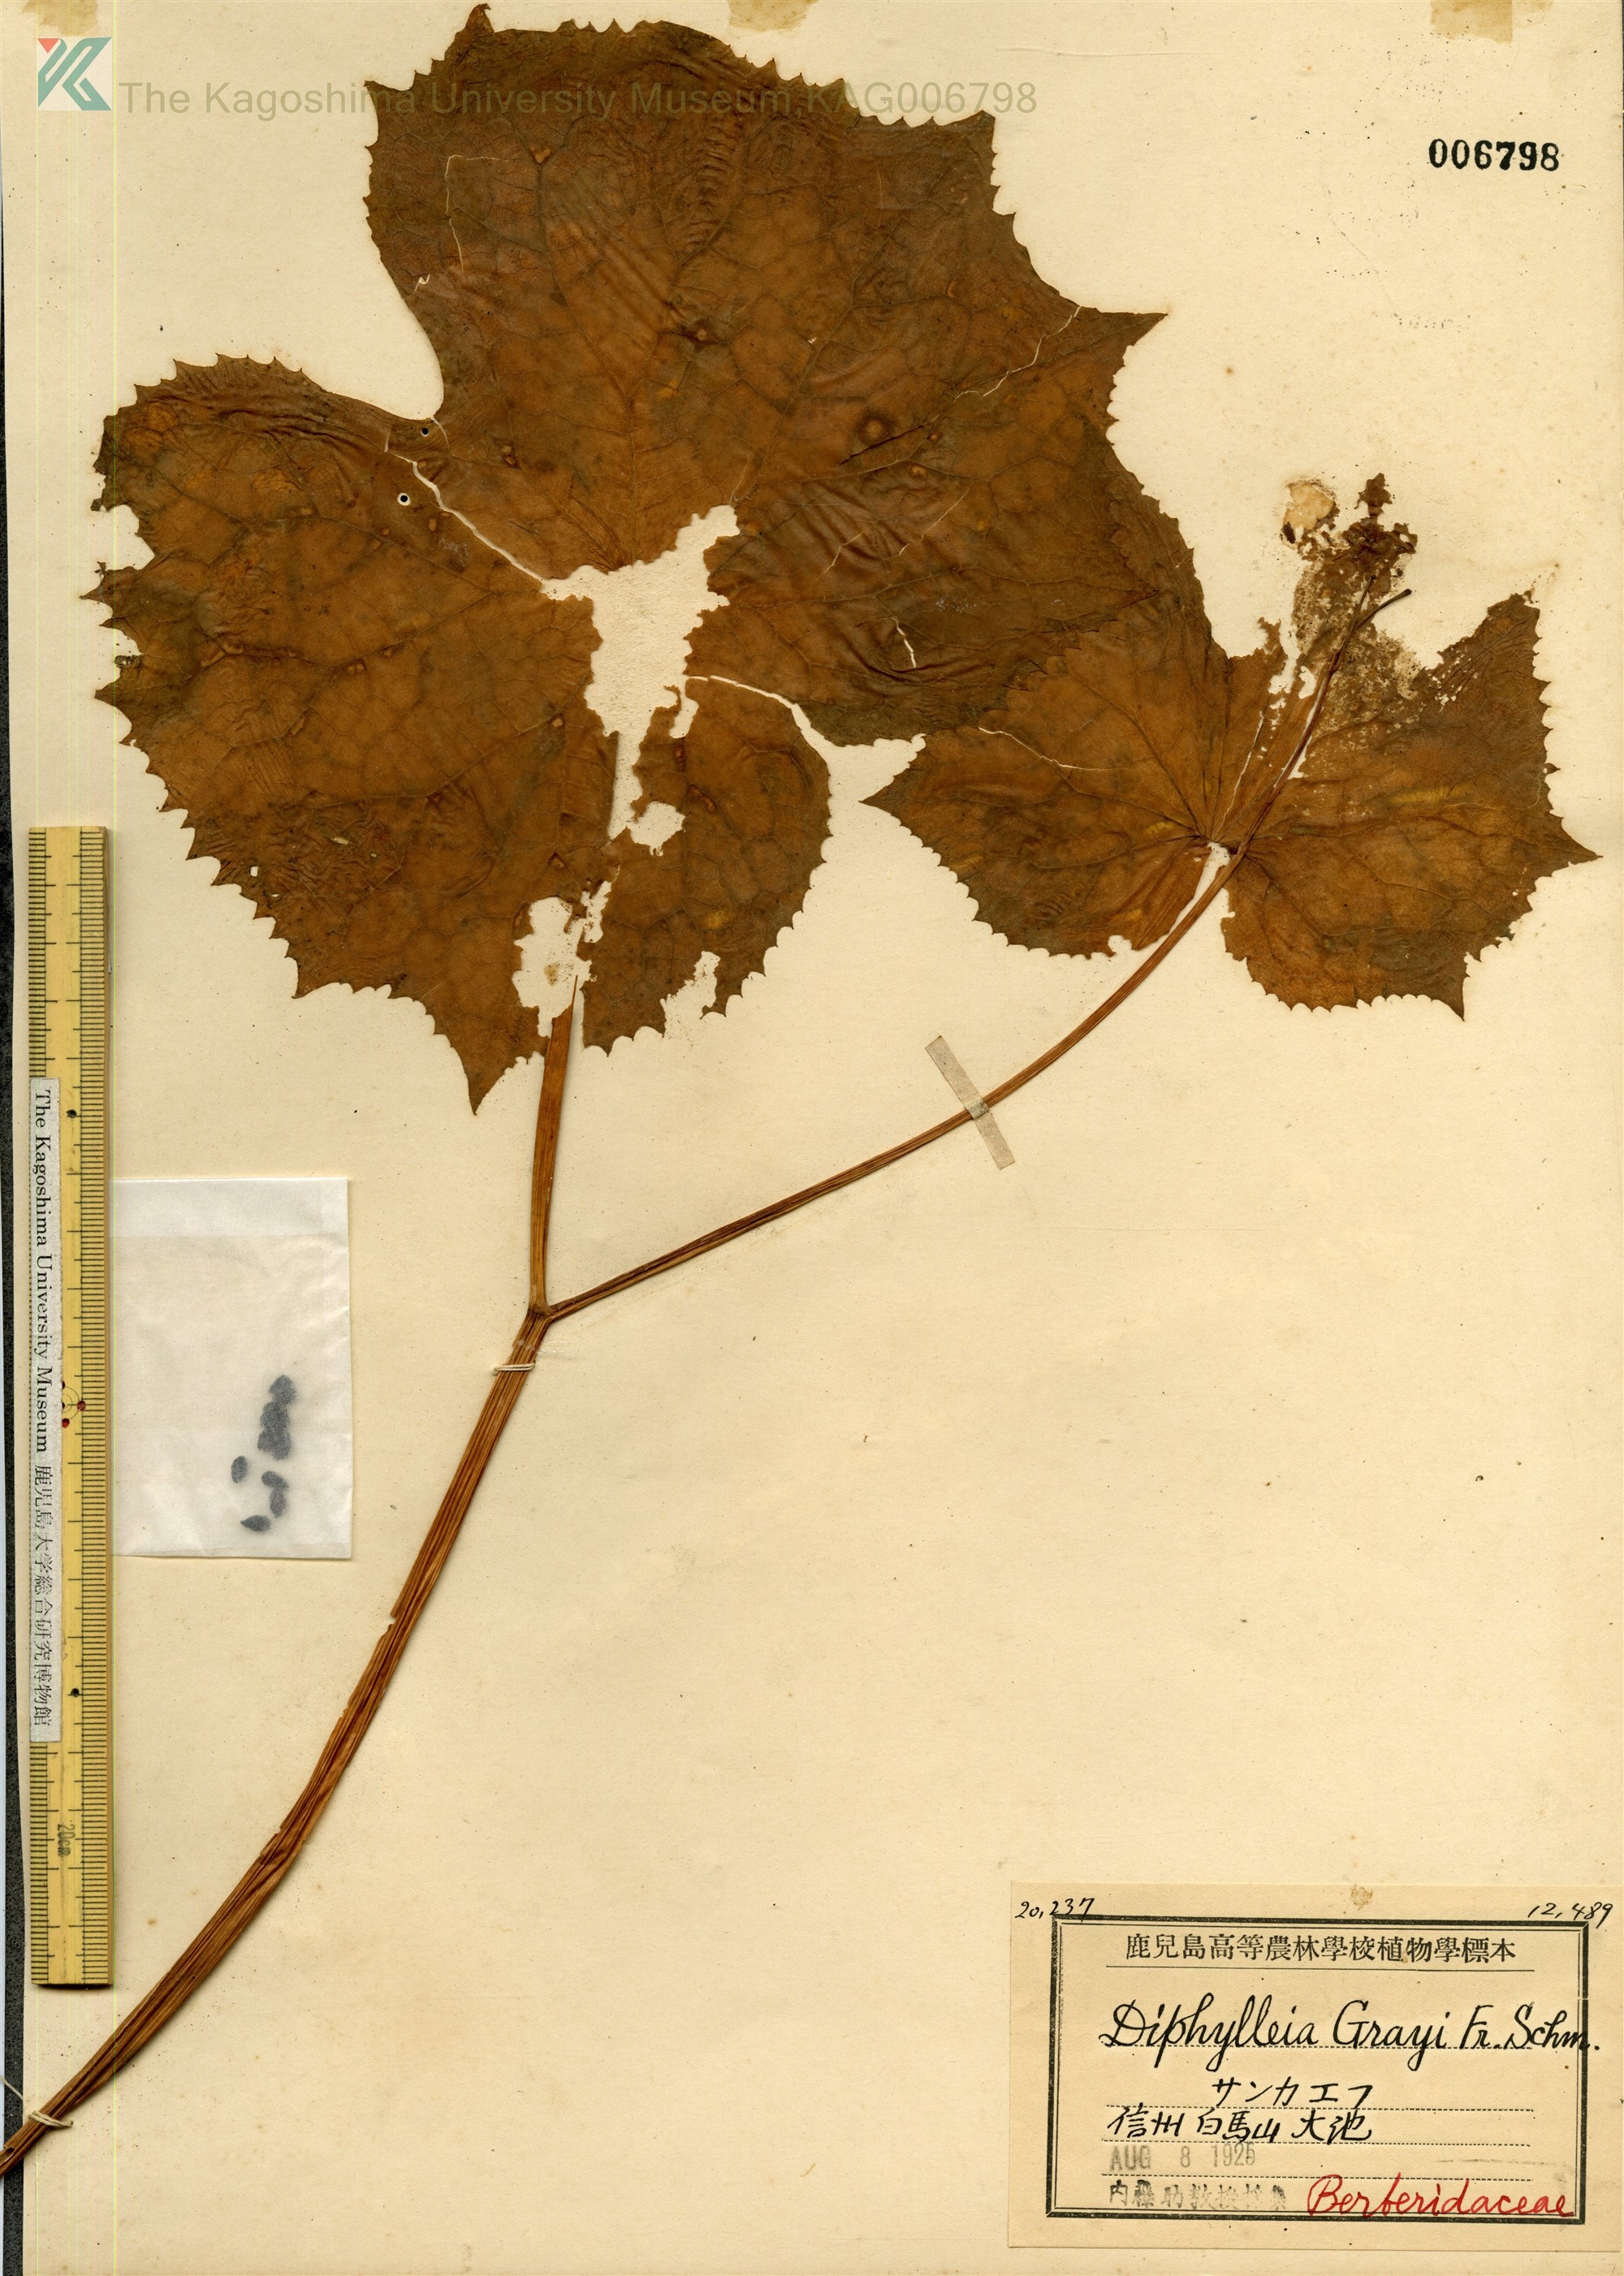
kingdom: Plantae
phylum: Tracheophyta
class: Magnoliopsida
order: Ranunculales
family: Berberidaceae
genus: Diphylleia
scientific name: Diphylleia grayi
